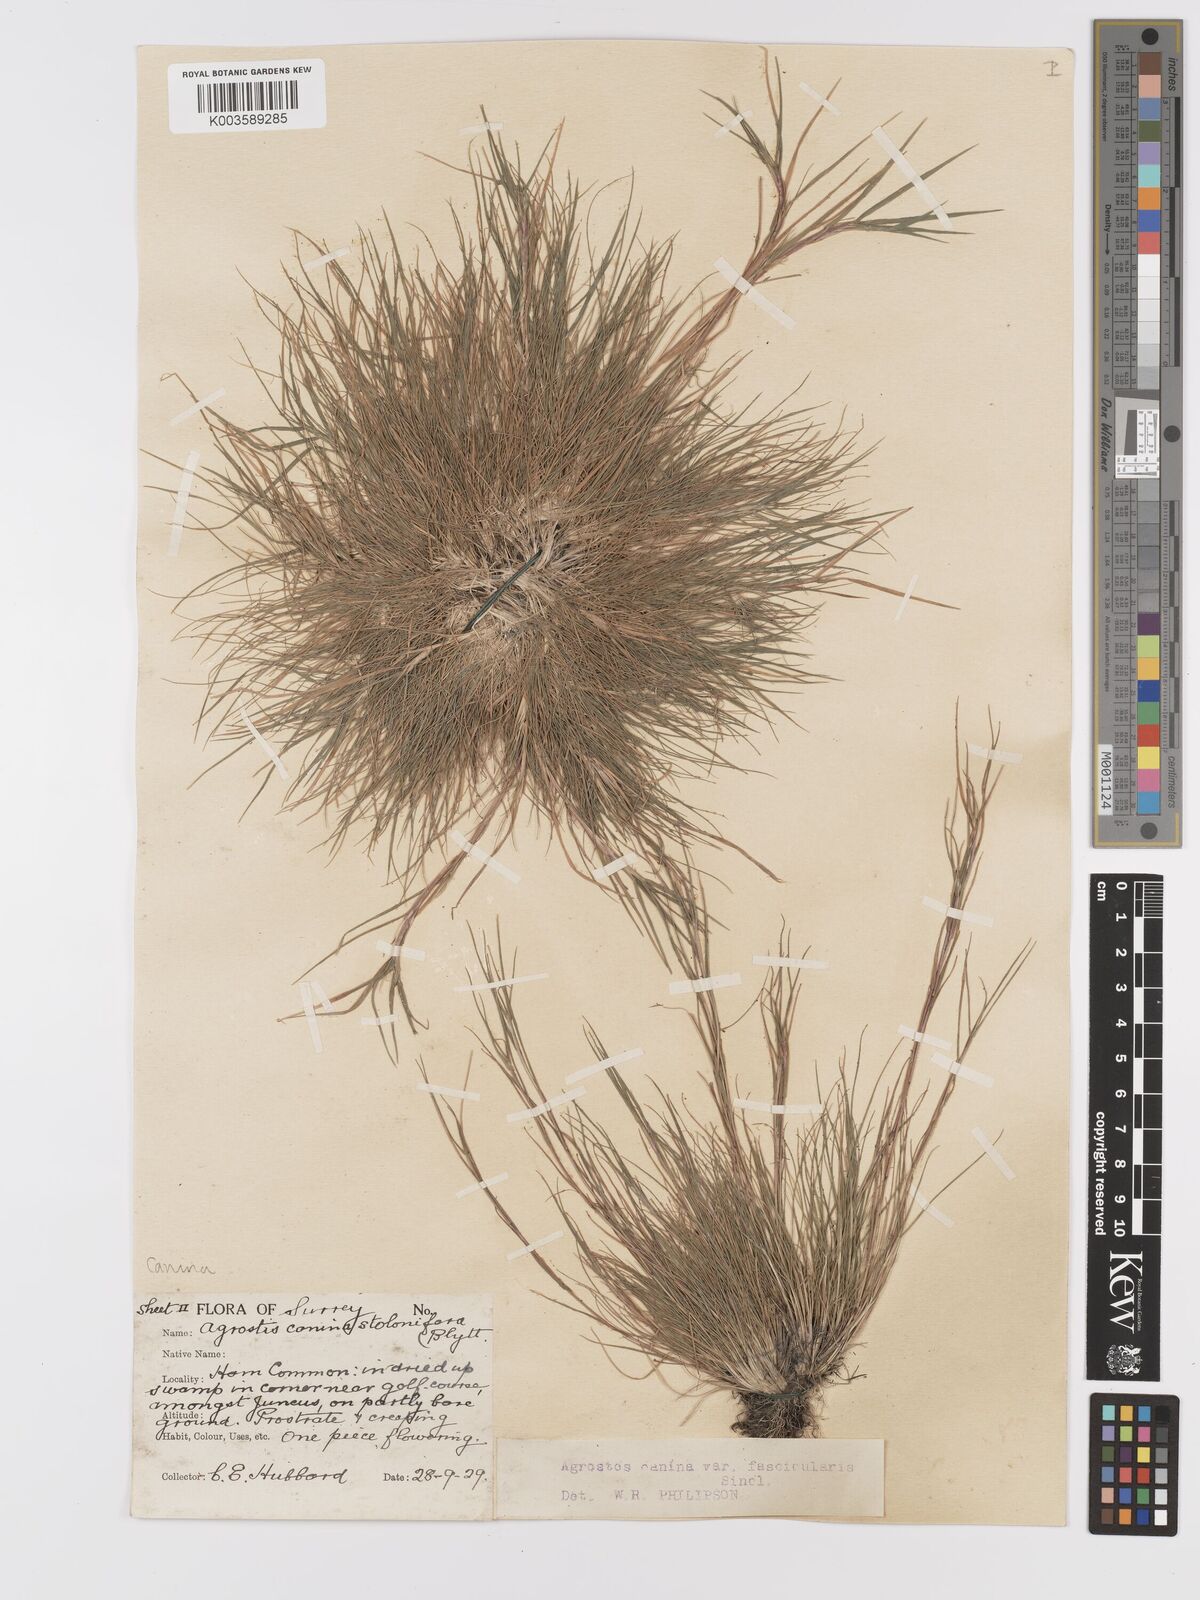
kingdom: Plantae
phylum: Tracheophyta
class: Liliopsida
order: Poales
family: Poaceae
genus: Agrostis
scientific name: Agrostis canina
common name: Velvet bent
